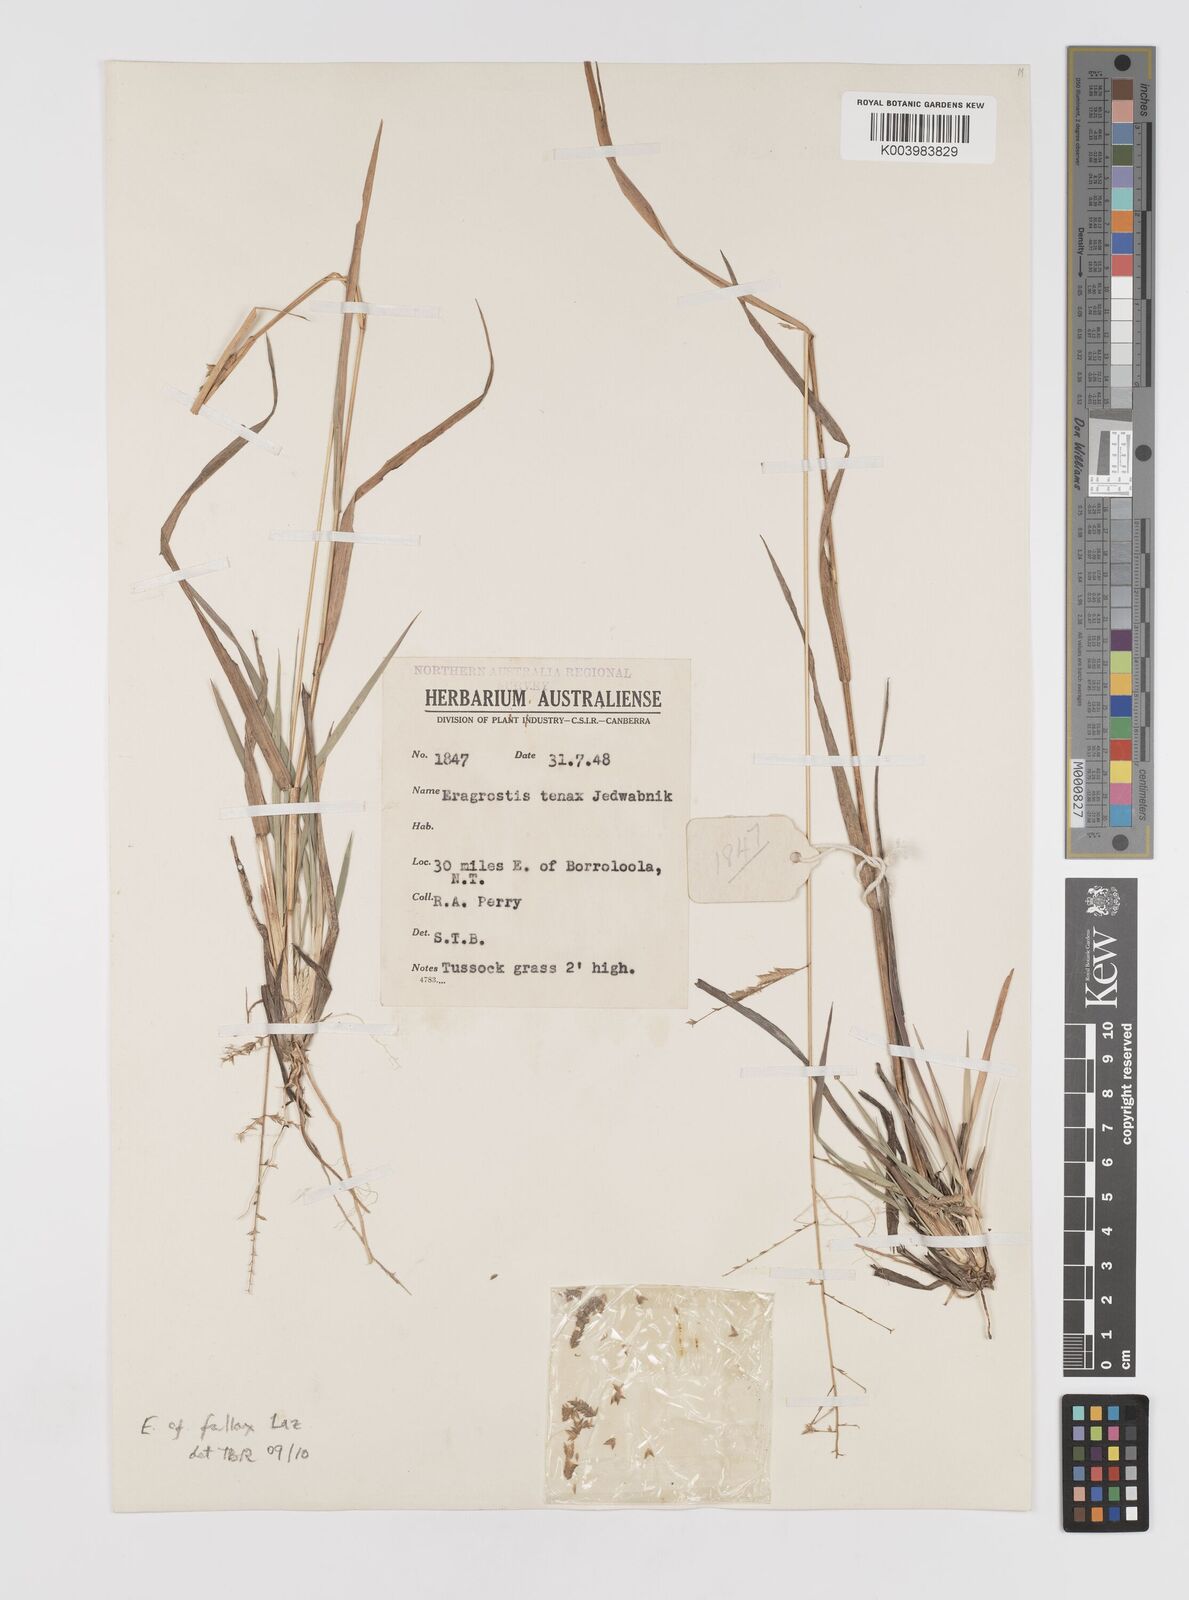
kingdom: Plantae
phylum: Tracheophyta
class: Liliopsida
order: Poales
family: Poaceae
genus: Eragrostis
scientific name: Eragrostis fallax
